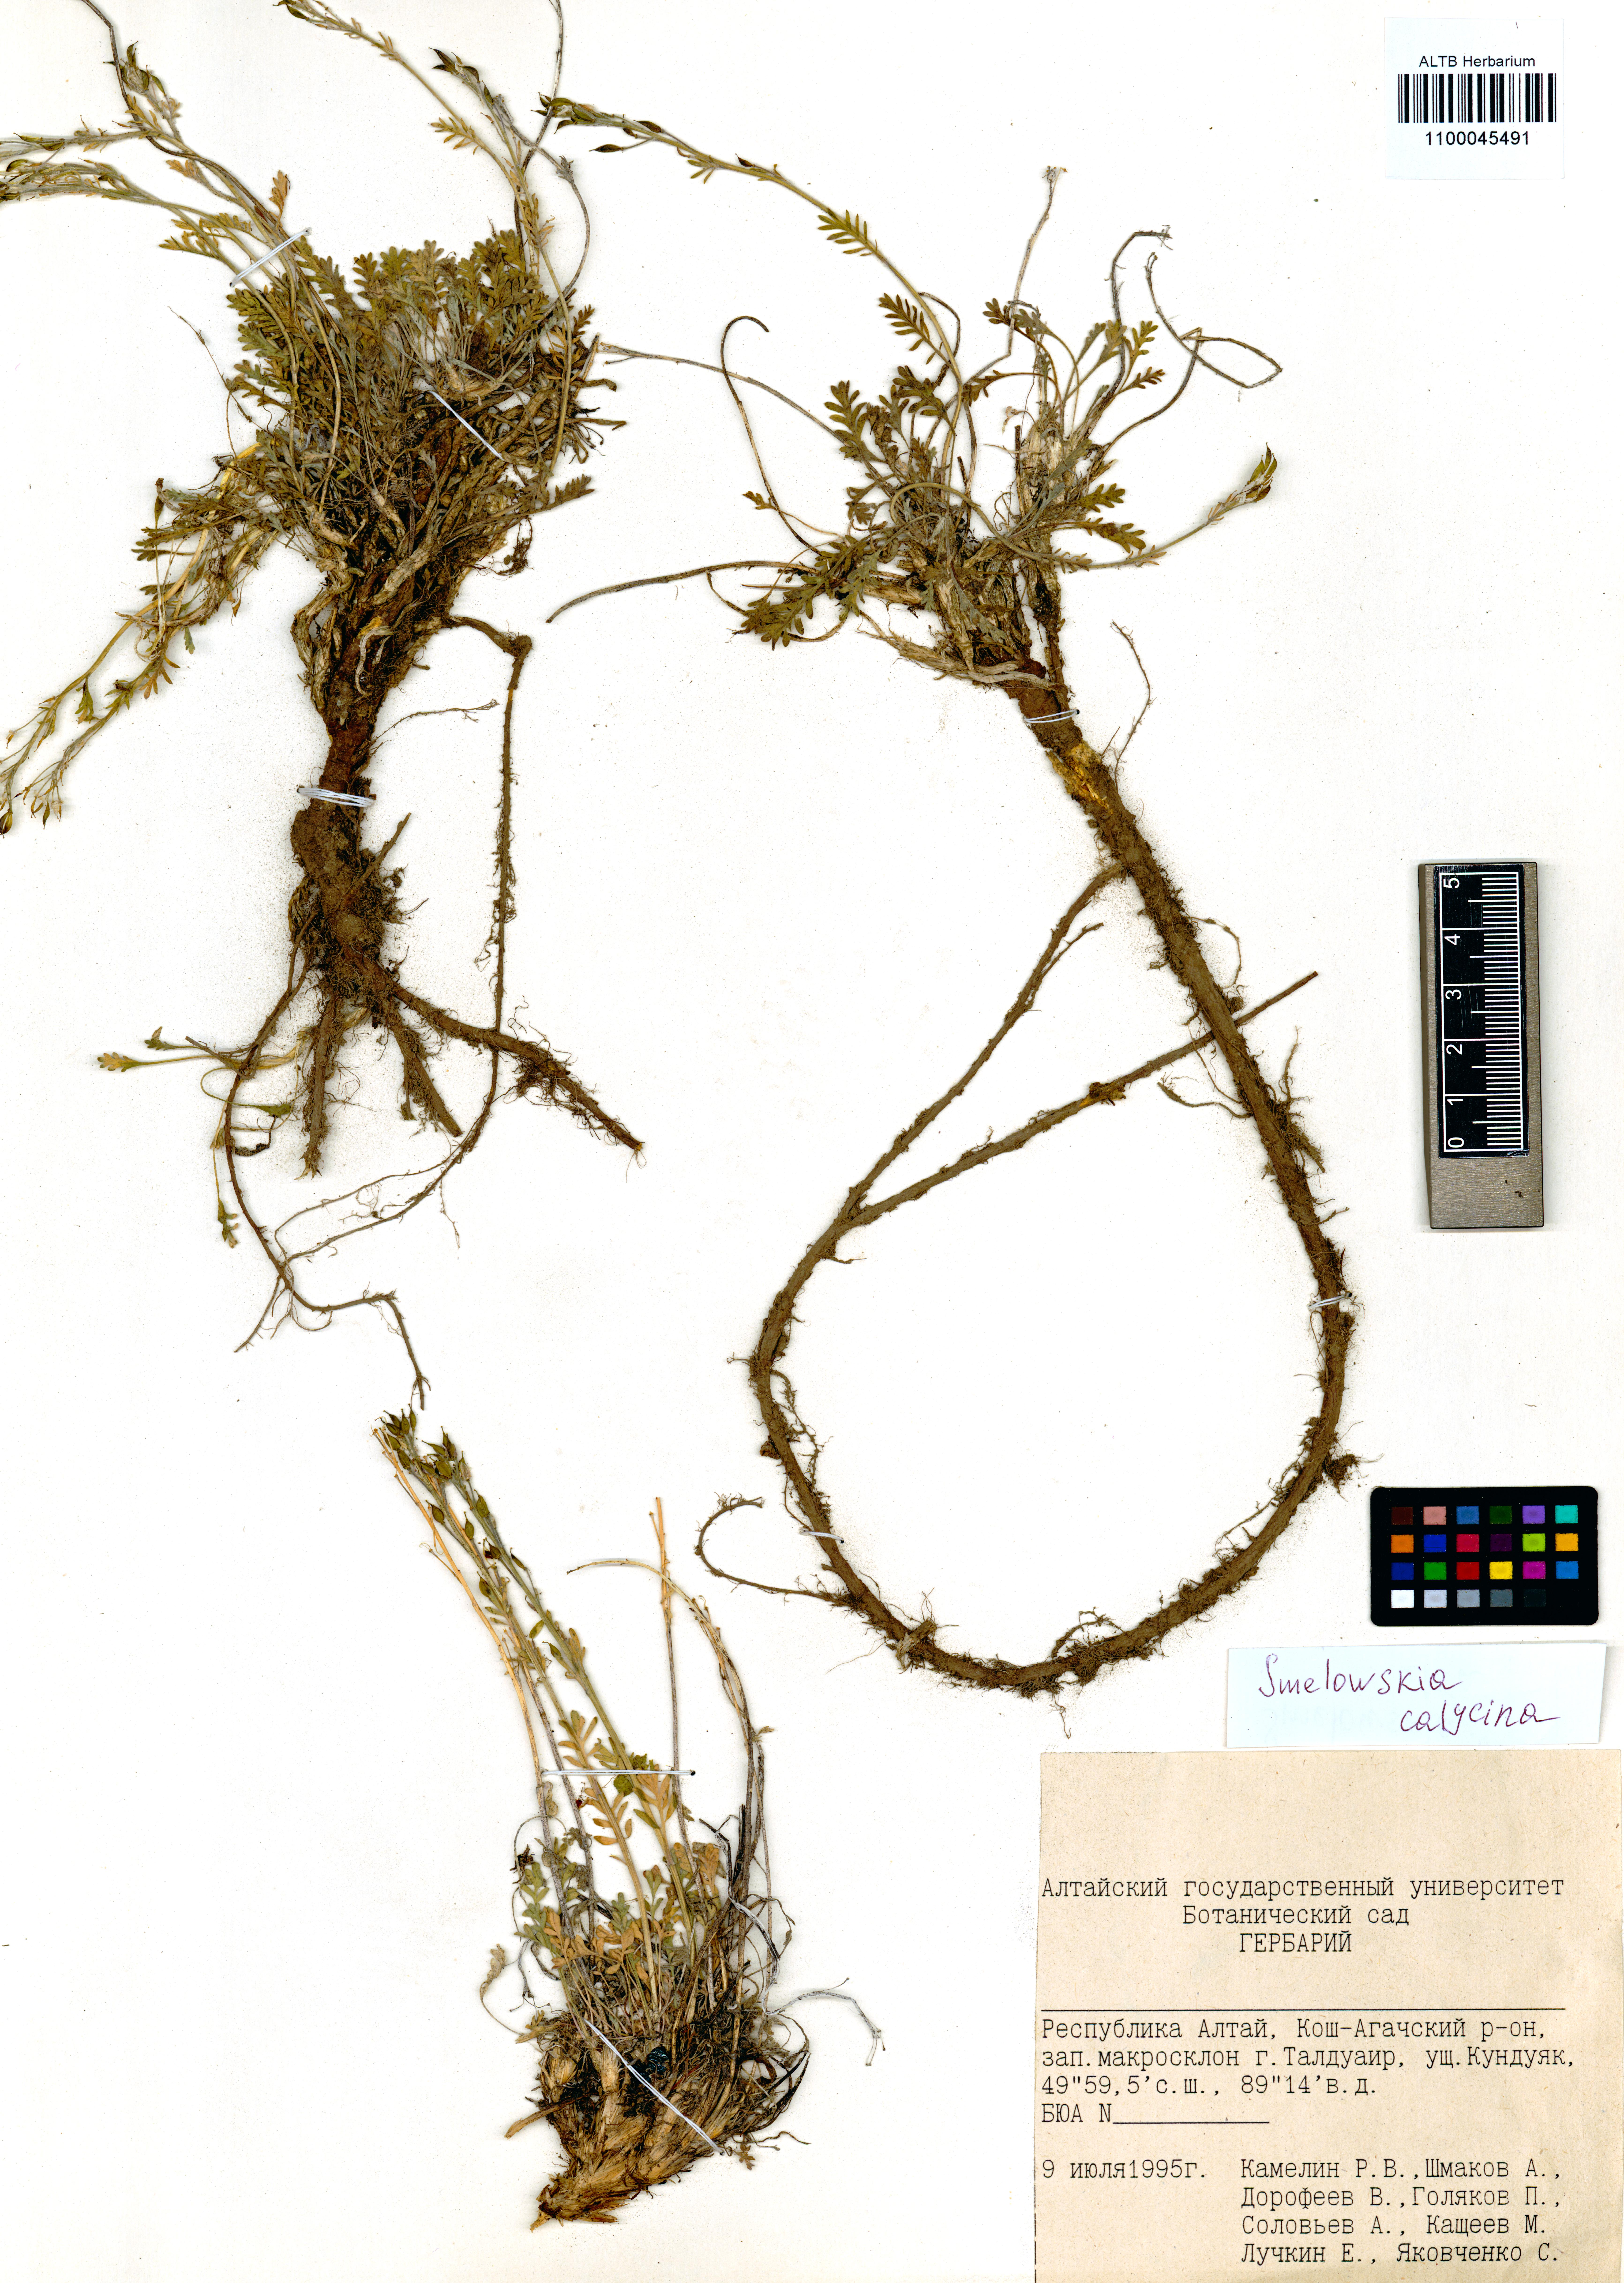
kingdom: Plantae
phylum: Tracheophyta
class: Magnoliopsida
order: Brassicales
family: Brassicaceae
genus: Smelowskia
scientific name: Smelowskia calycina
